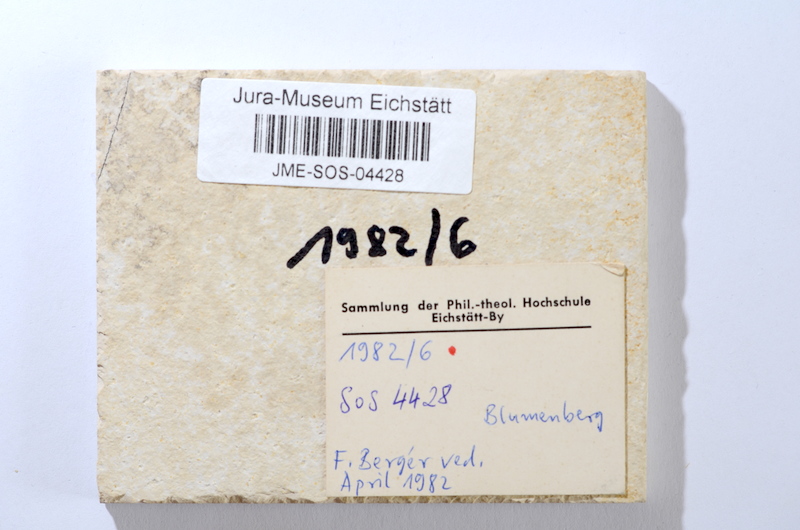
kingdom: Animalia
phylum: Chordata
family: Ascalaboidae
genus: Tharsis
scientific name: Tharsis dubius
